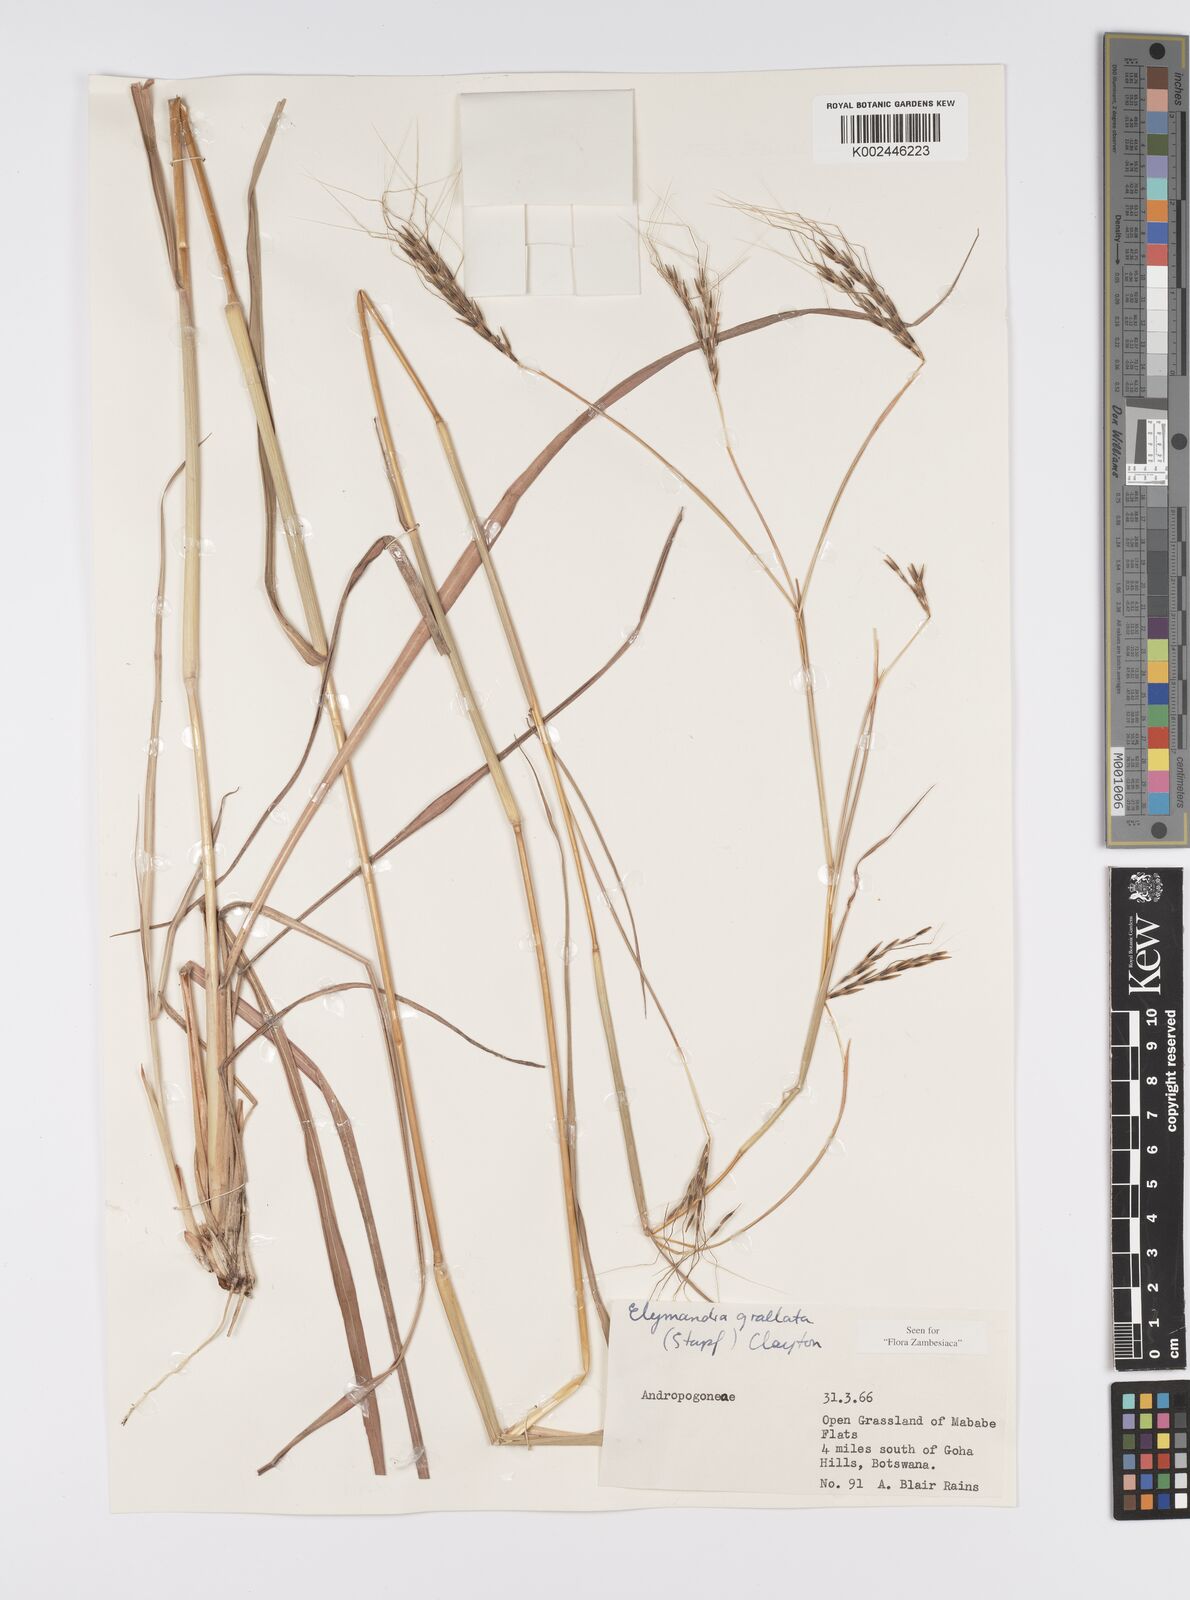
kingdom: Plantae
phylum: Tracheophyta
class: Liliopsida
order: Poales
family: Poaceae
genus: Elymandra
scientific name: Elymandra grallata
